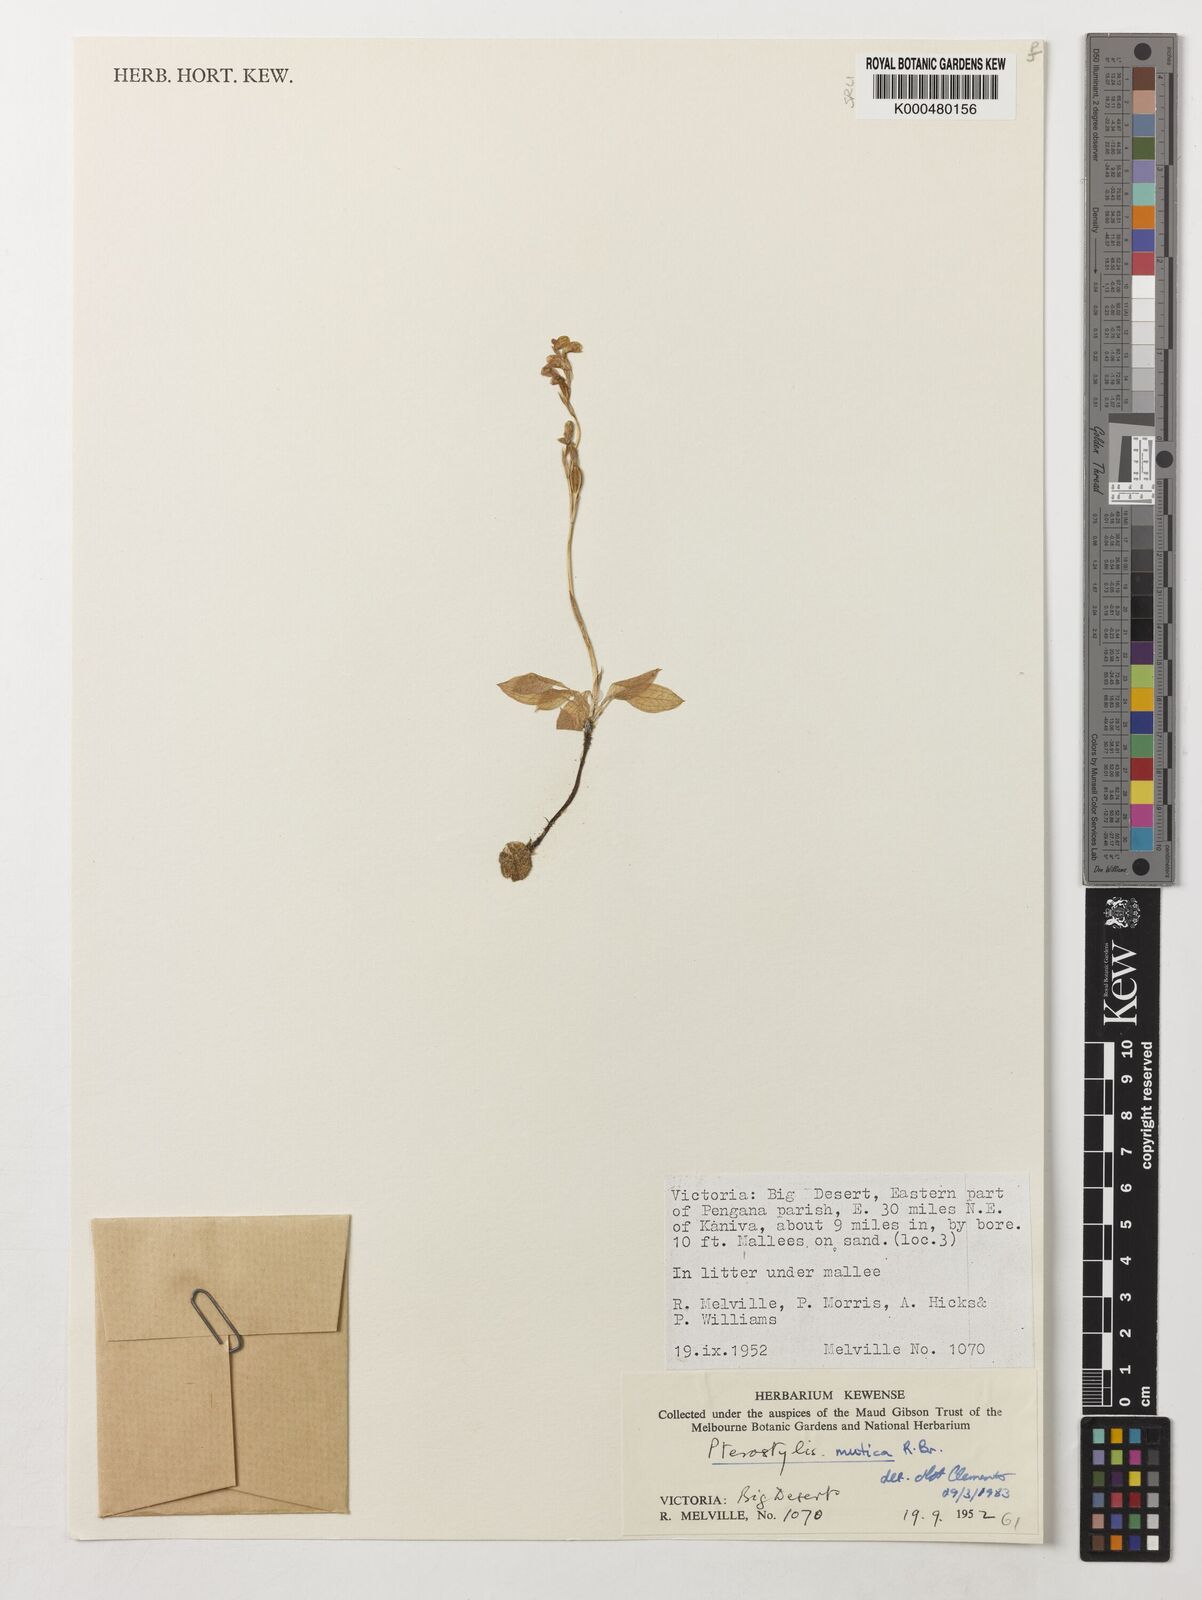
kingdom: Plantae
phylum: Tracheophyta
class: Liliopsida
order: Asparagales
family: Orchidaceae
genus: Pterostylis
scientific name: Pterostylis mutica
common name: Midget greenhood
